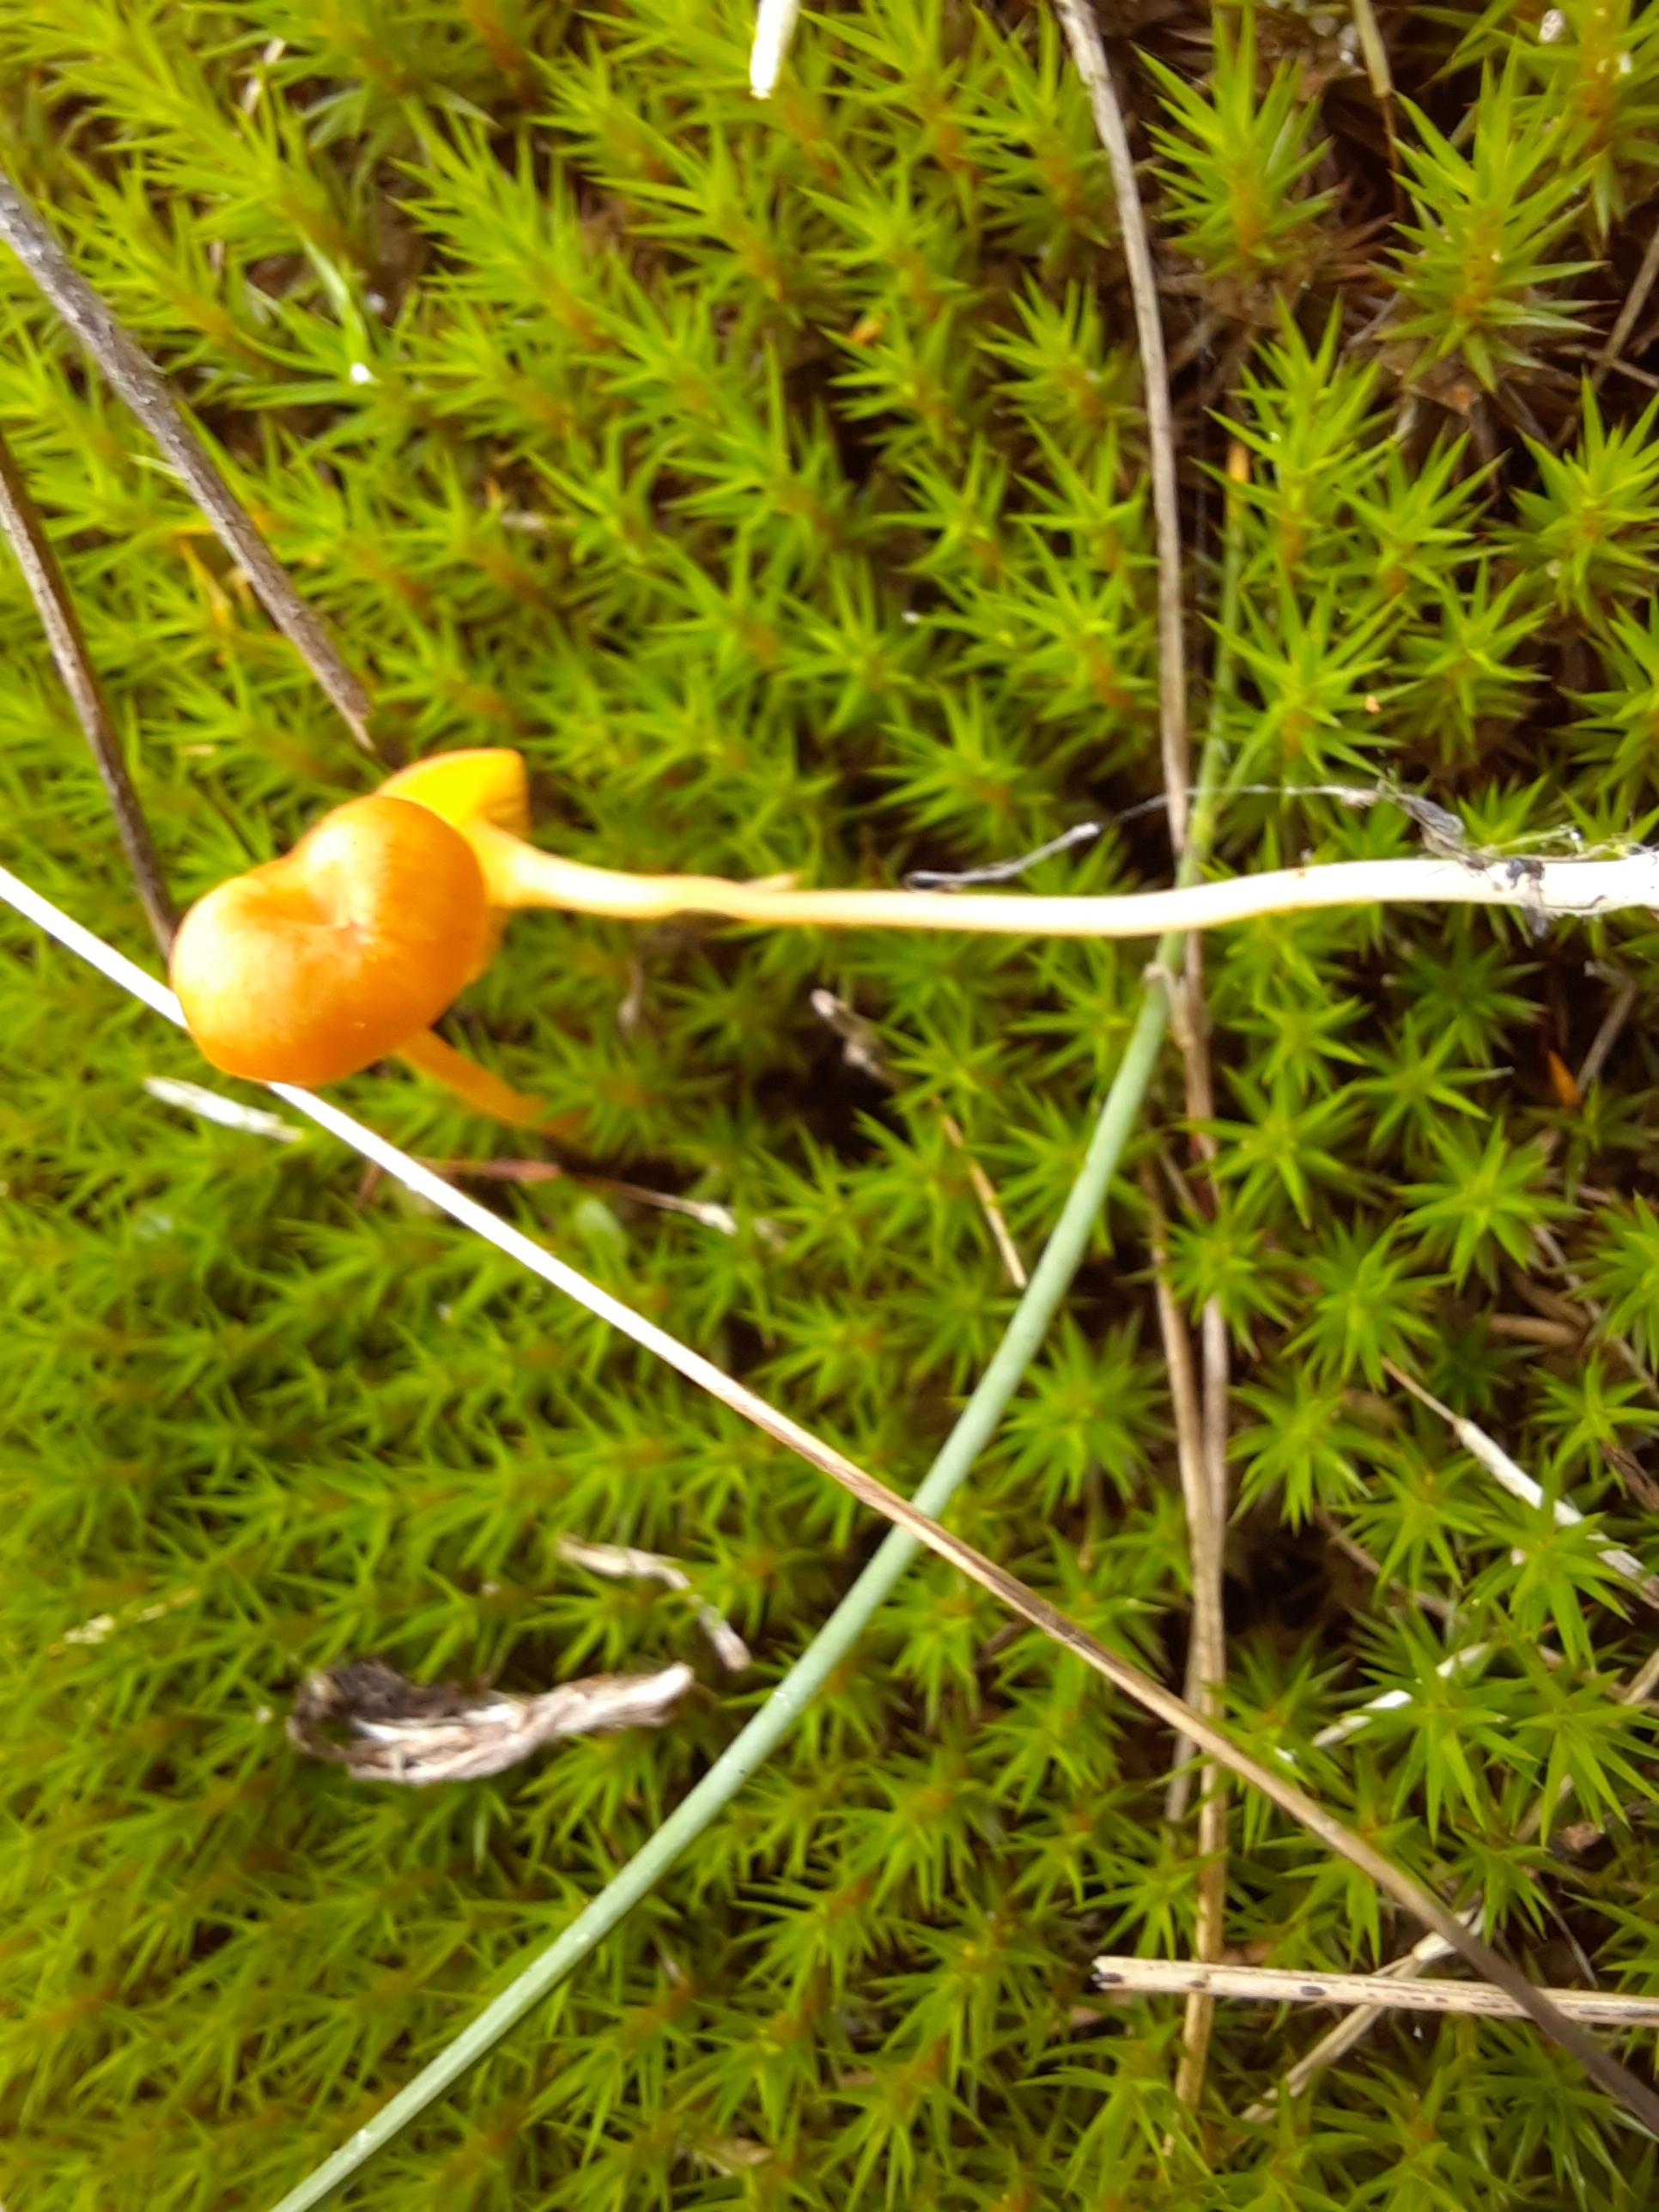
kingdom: Fungi
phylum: Basidiomycota
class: Agaricomycetes
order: Hymenochaetales
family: Rickenellaceae
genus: Rickenella
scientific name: Rickenella fibula
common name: orange mosnavlehat
